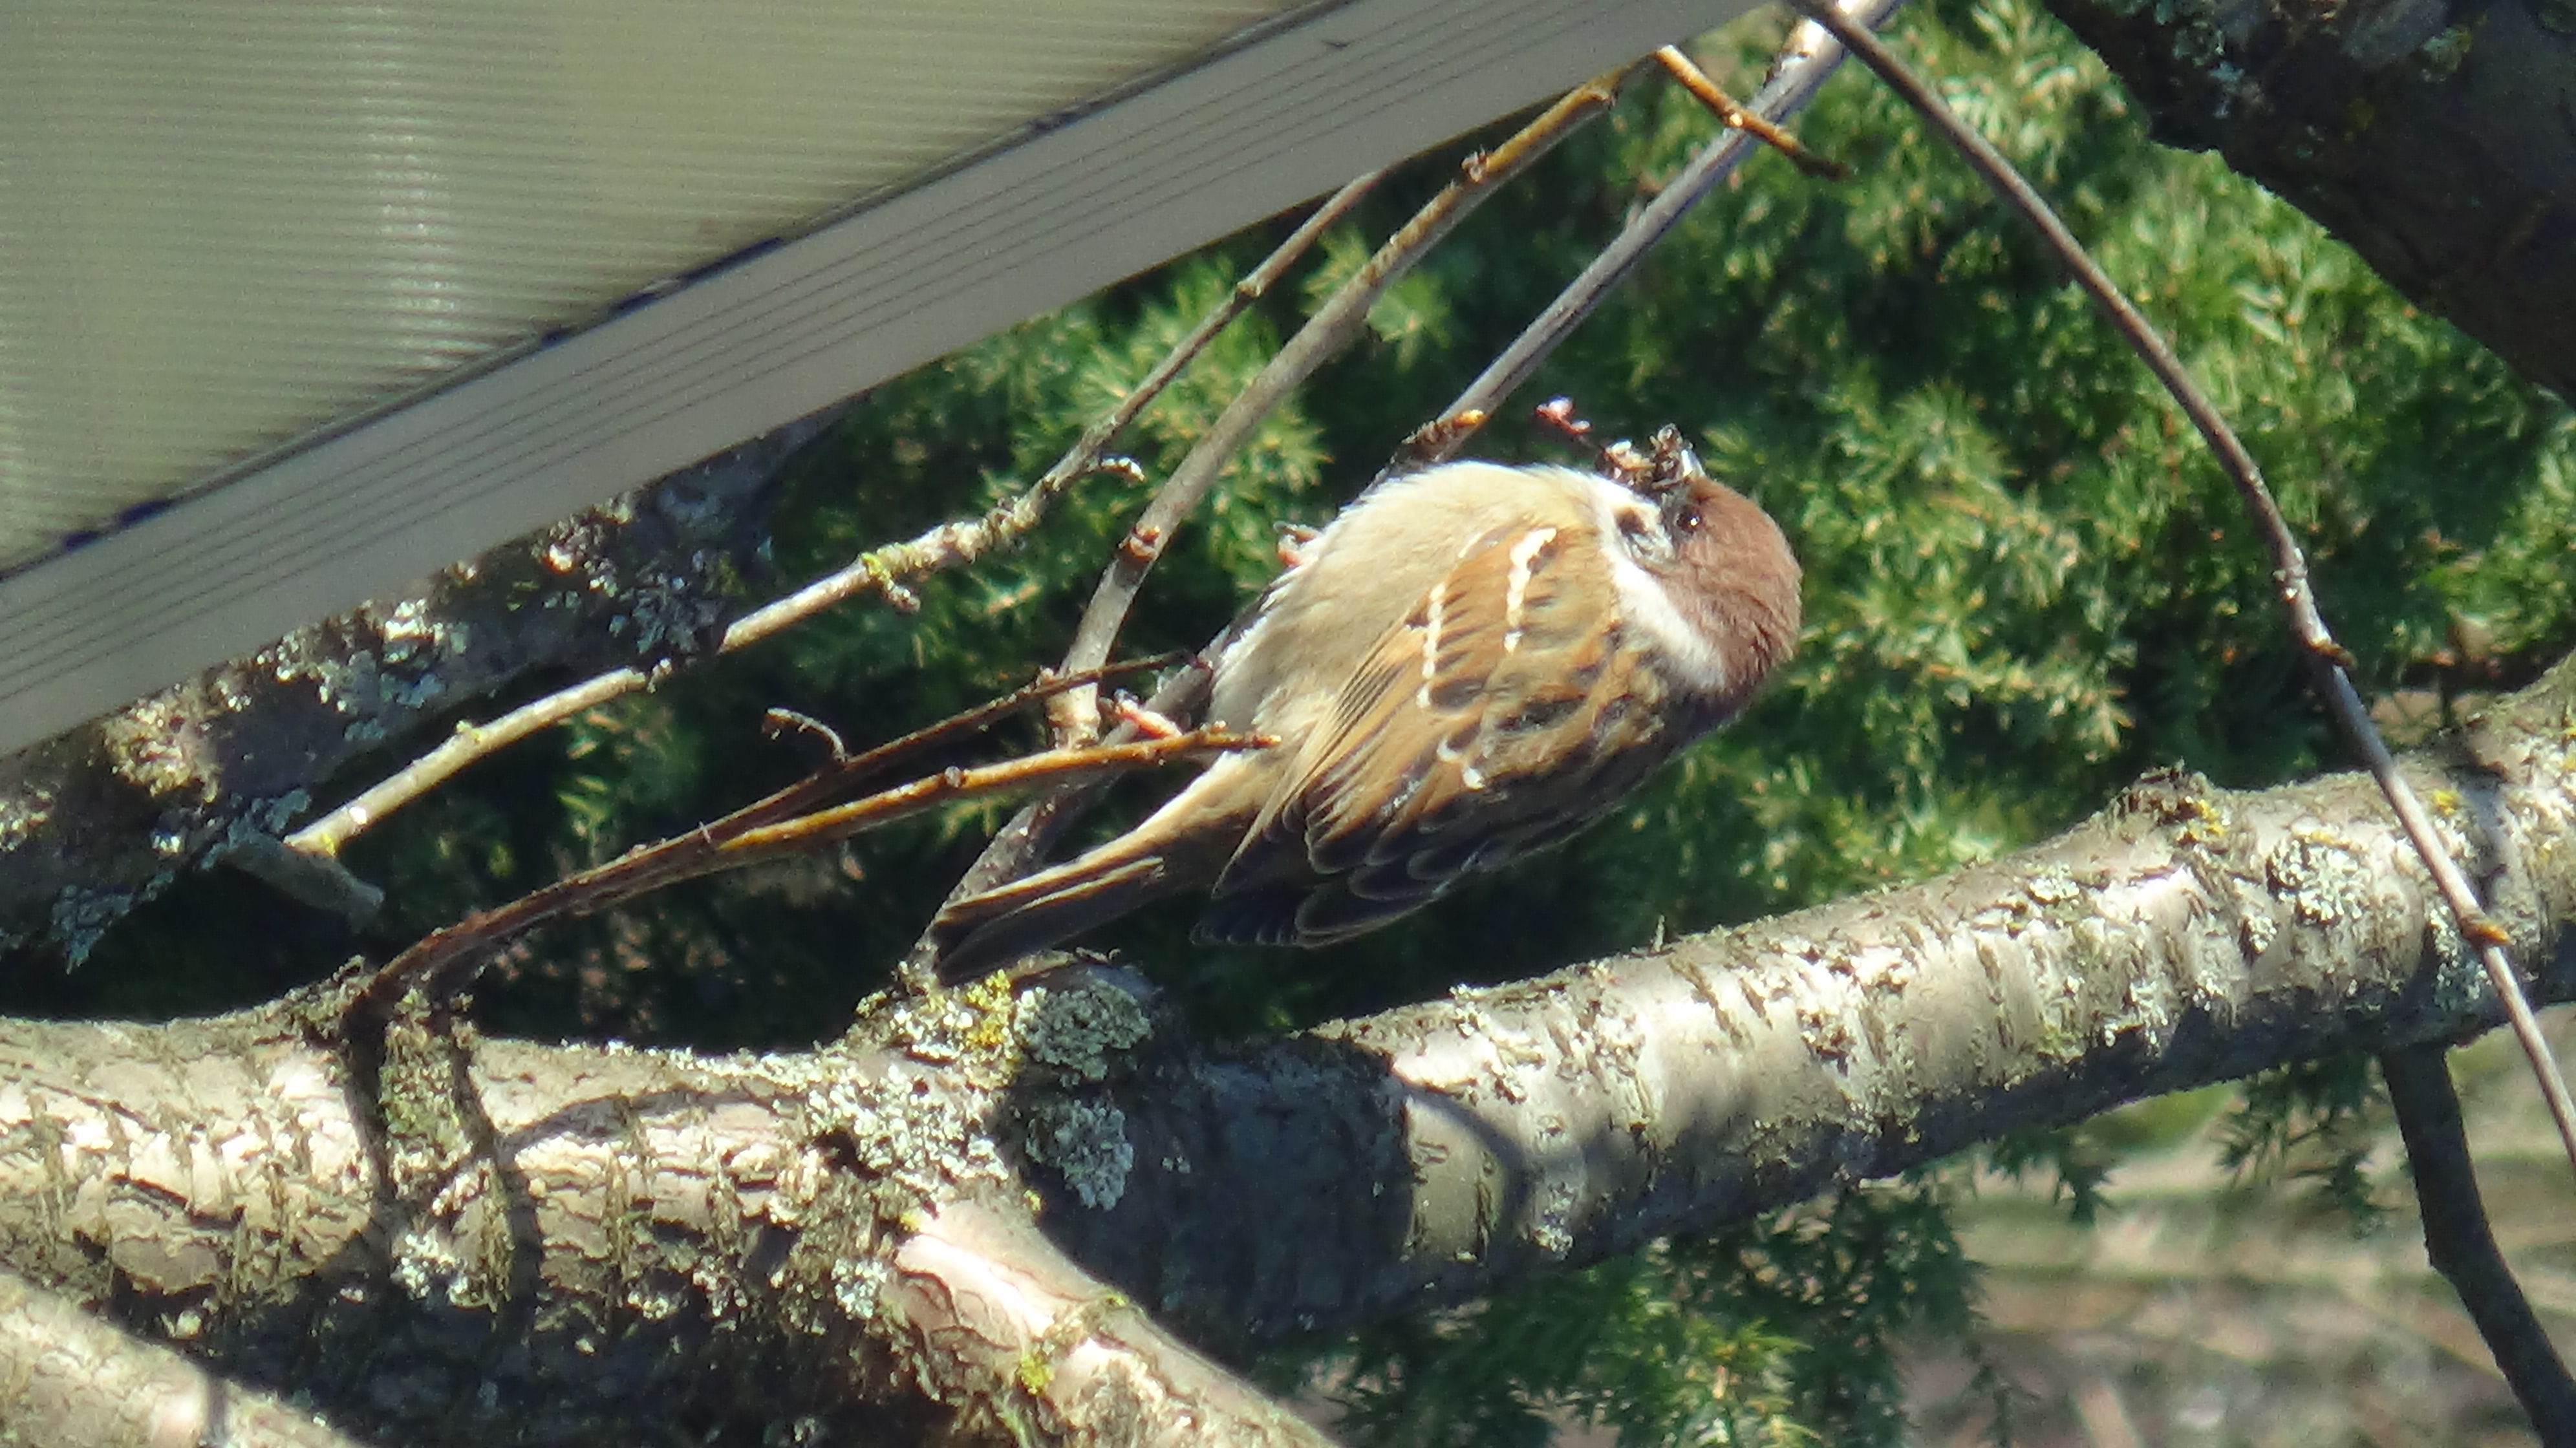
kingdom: Animalia
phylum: Chordata
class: Aves
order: Passeriformes
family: Passeridae
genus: Passer
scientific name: Passer domesticus
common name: House sparrow
